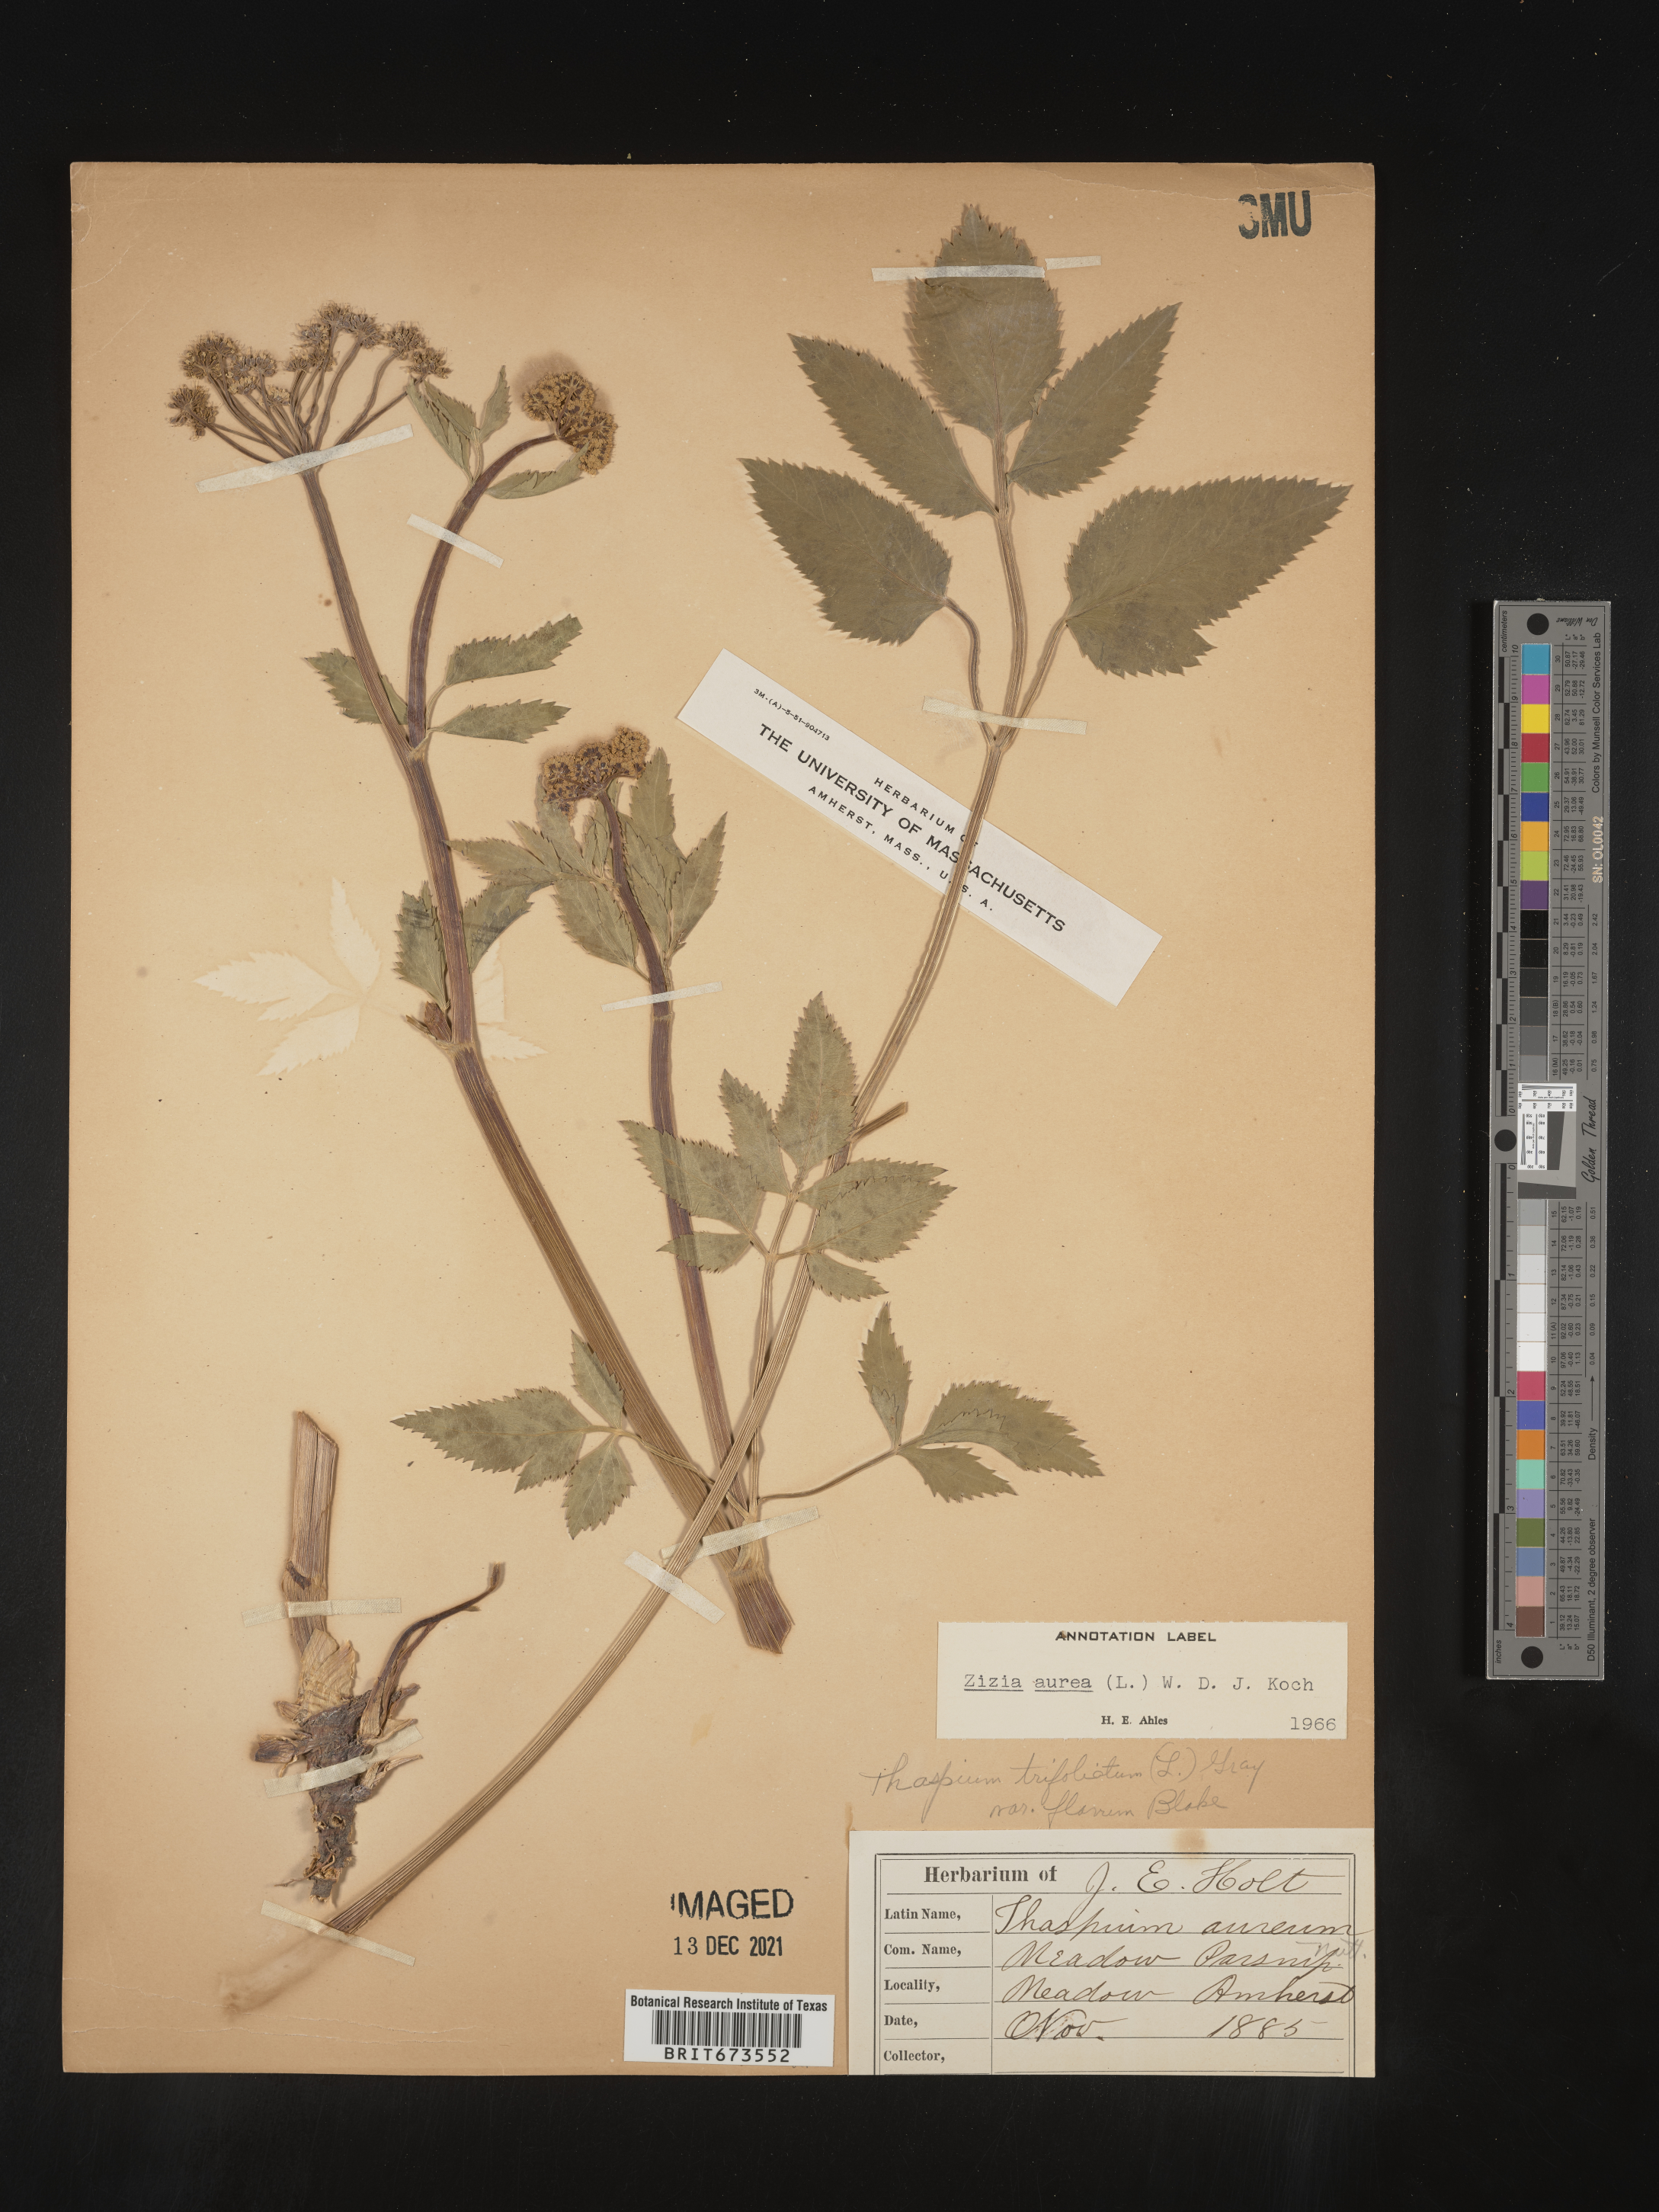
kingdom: Plantae
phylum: Tracheophyta
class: Magnoliopsida
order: Apiales
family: Apiaceae
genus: Zizia
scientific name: Zizia aurea
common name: Golden alexanders
